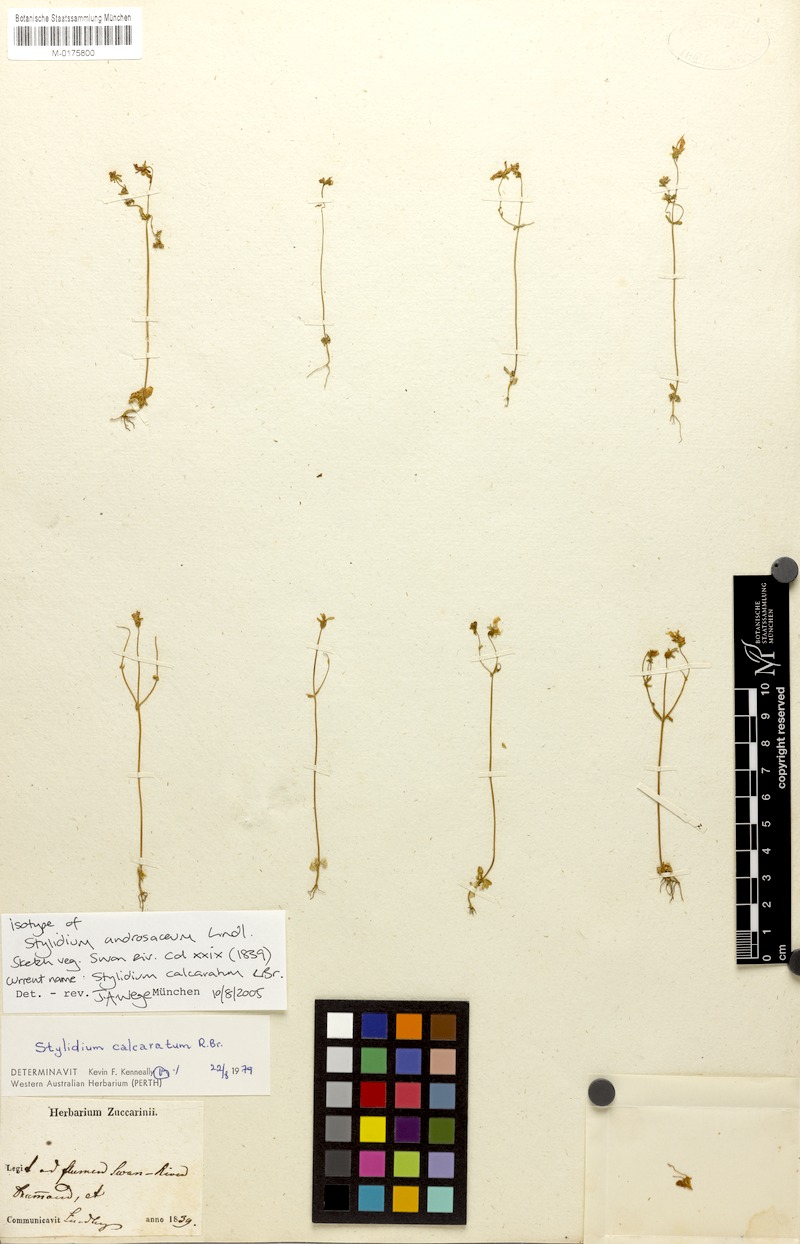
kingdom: Plantae
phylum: Tracheophyta
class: Magnoliopsida
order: Asterales
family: Stylidiaceae
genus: Stylidium
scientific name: Stylidium calcaratum
